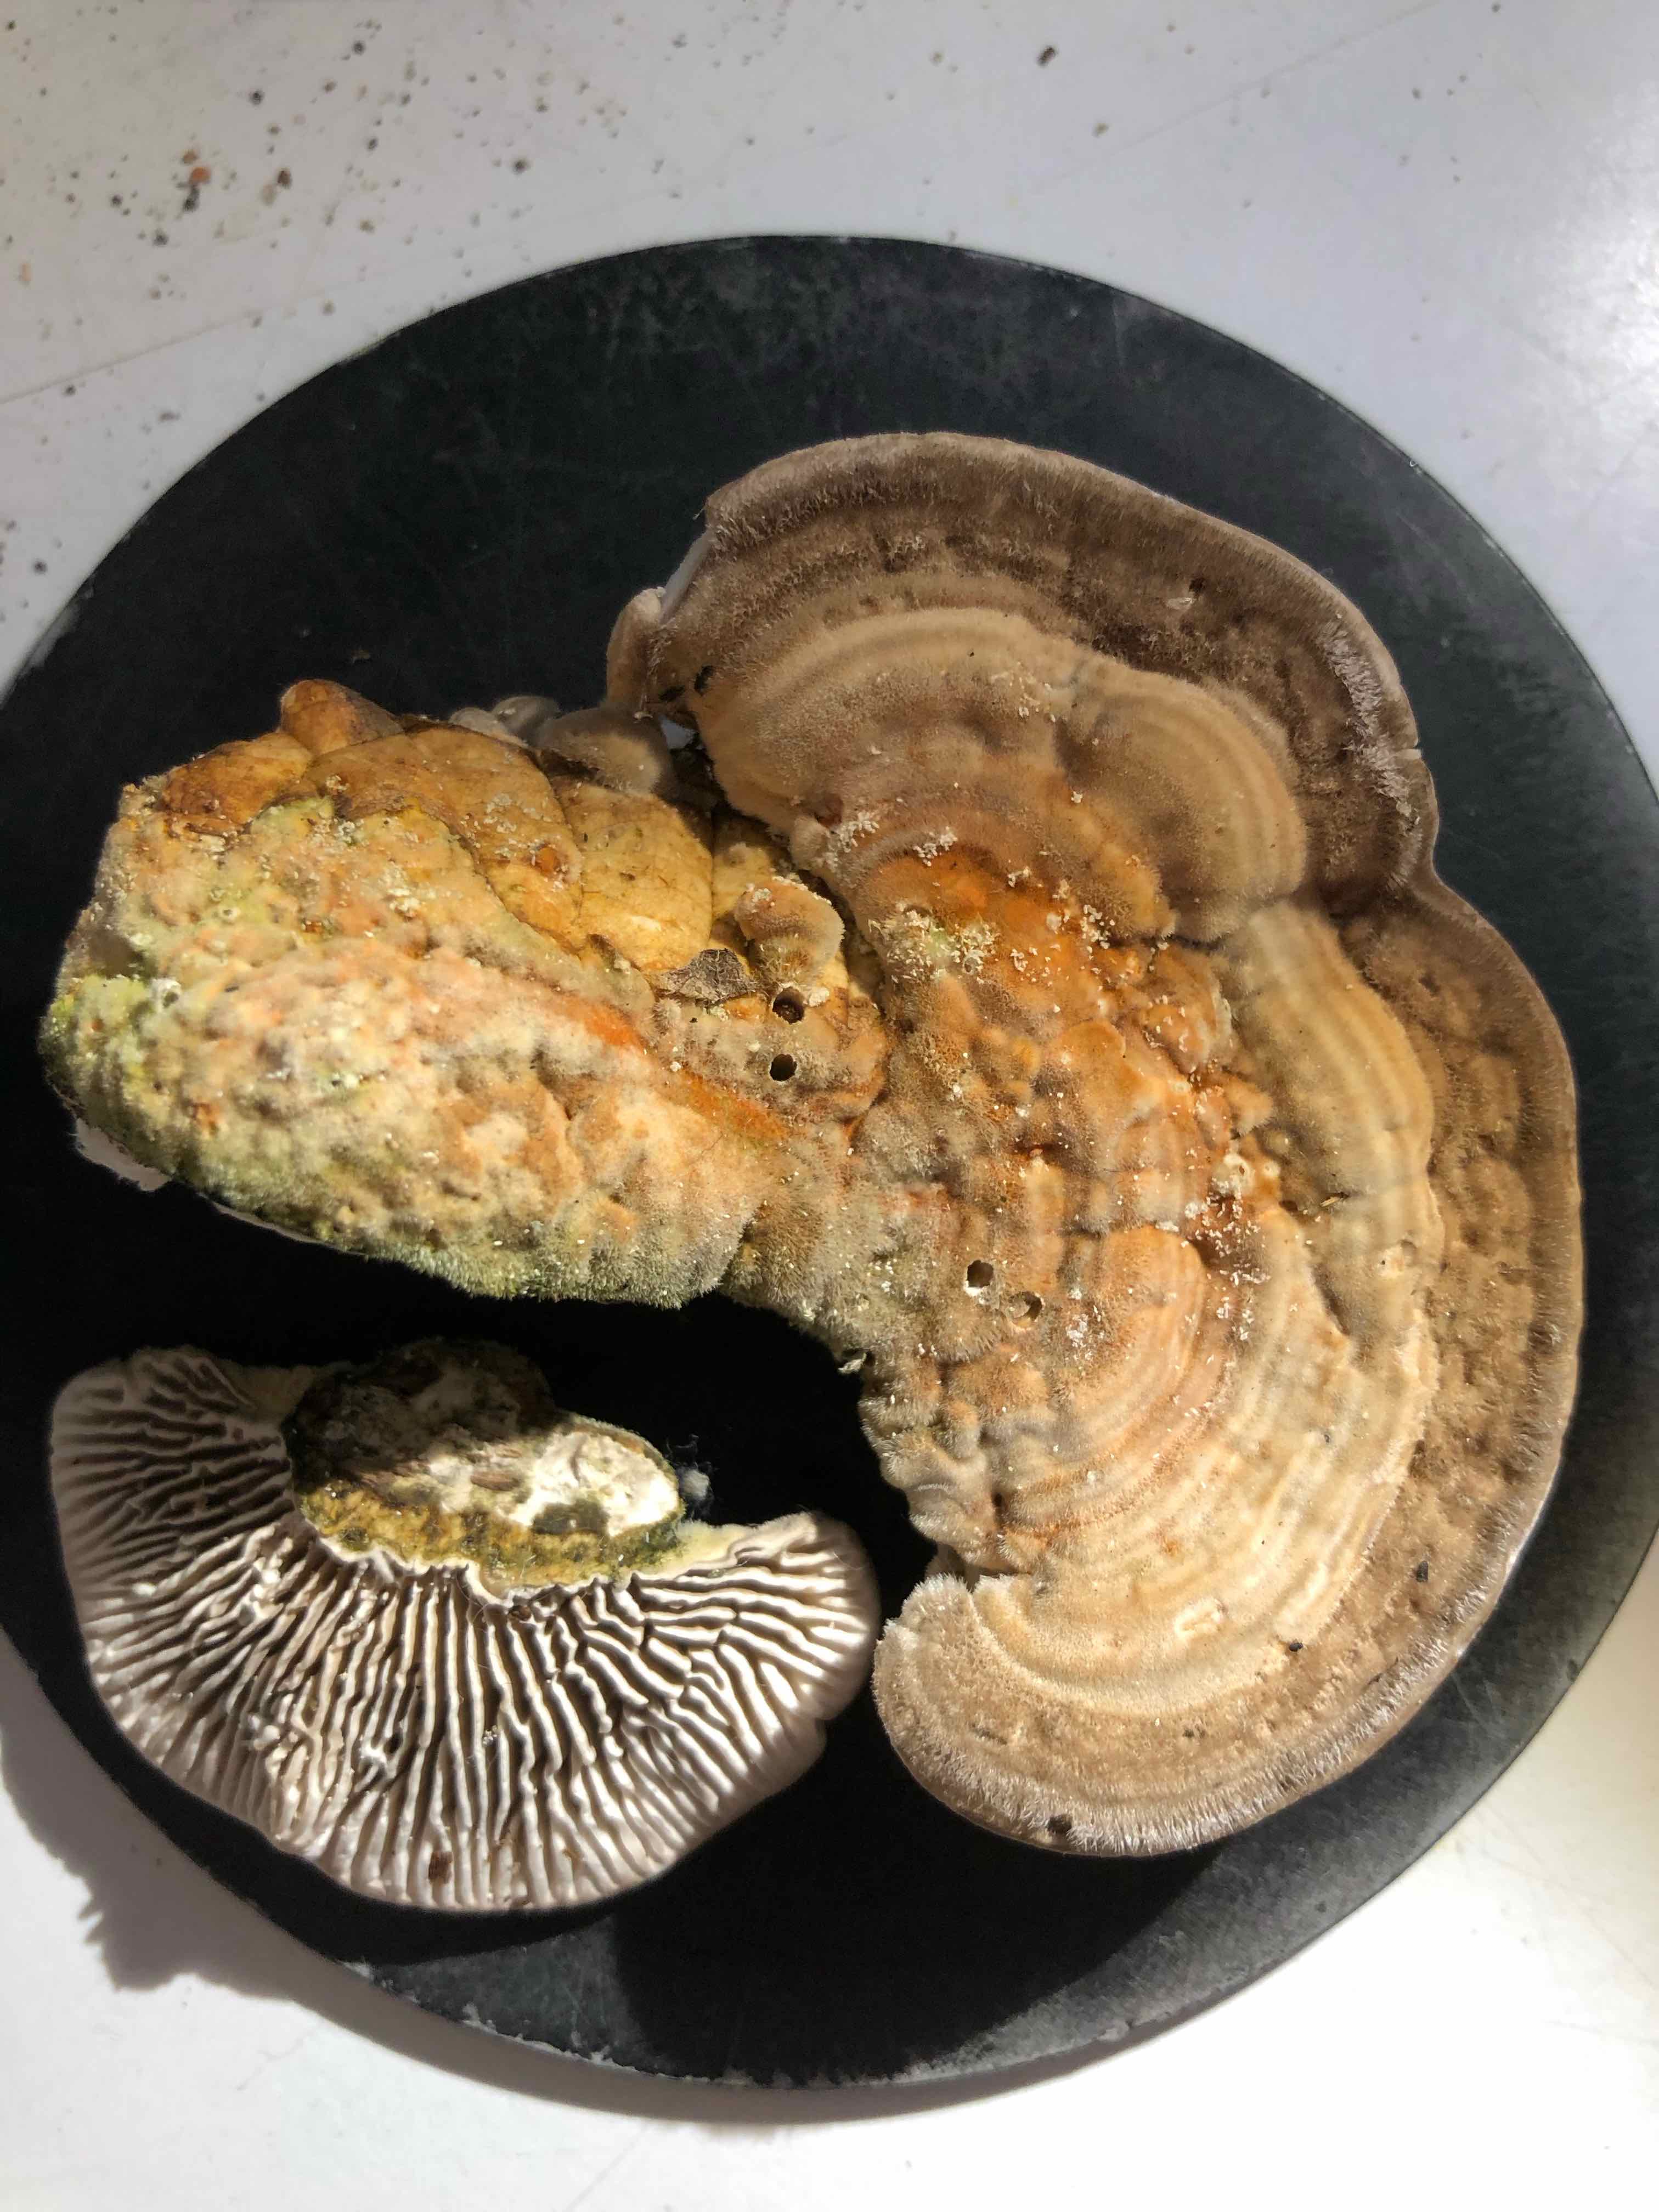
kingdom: Fungi
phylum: Basidiomycota
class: Agaricomycetes
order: Polyporales
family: Polyporaceae
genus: Lenzites
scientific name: Lenzites betulinus
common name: birke-læderporesvamp
